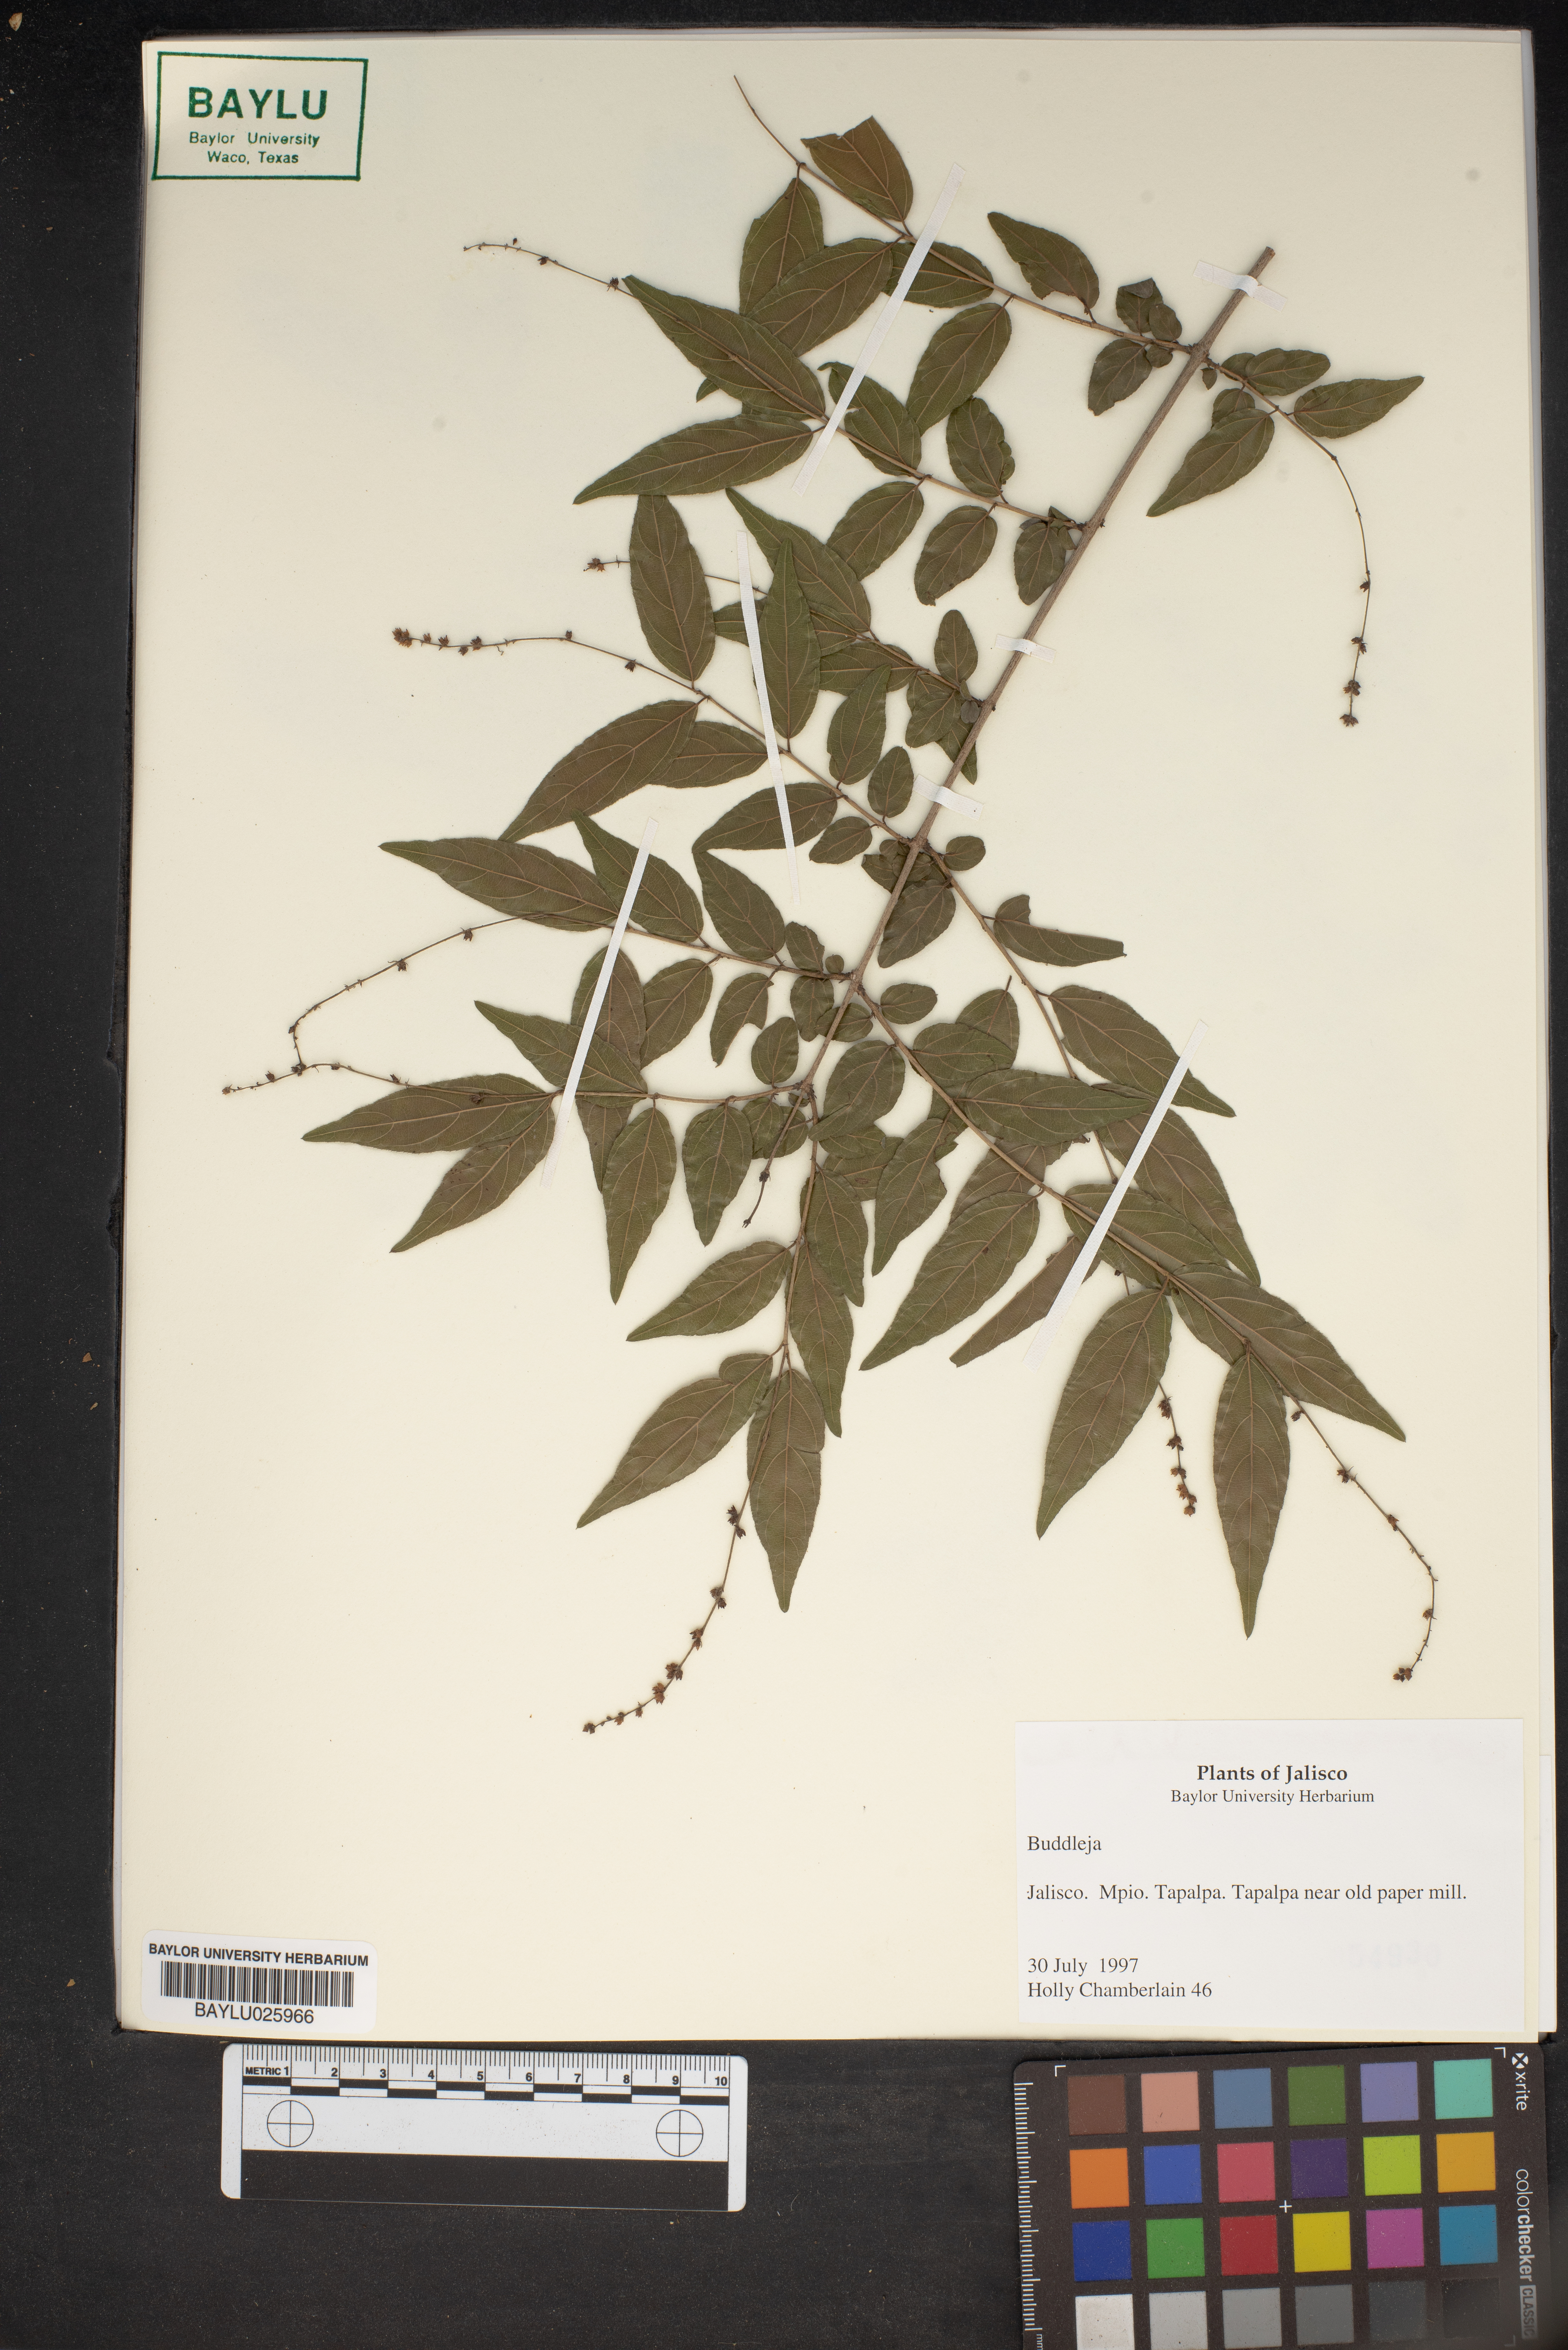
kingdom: Plantae
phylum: Tracheophyta
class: Magnoliopsida
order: Lamiales
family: Scrophulariaceae
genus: Buddleja
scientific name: Buddleja
